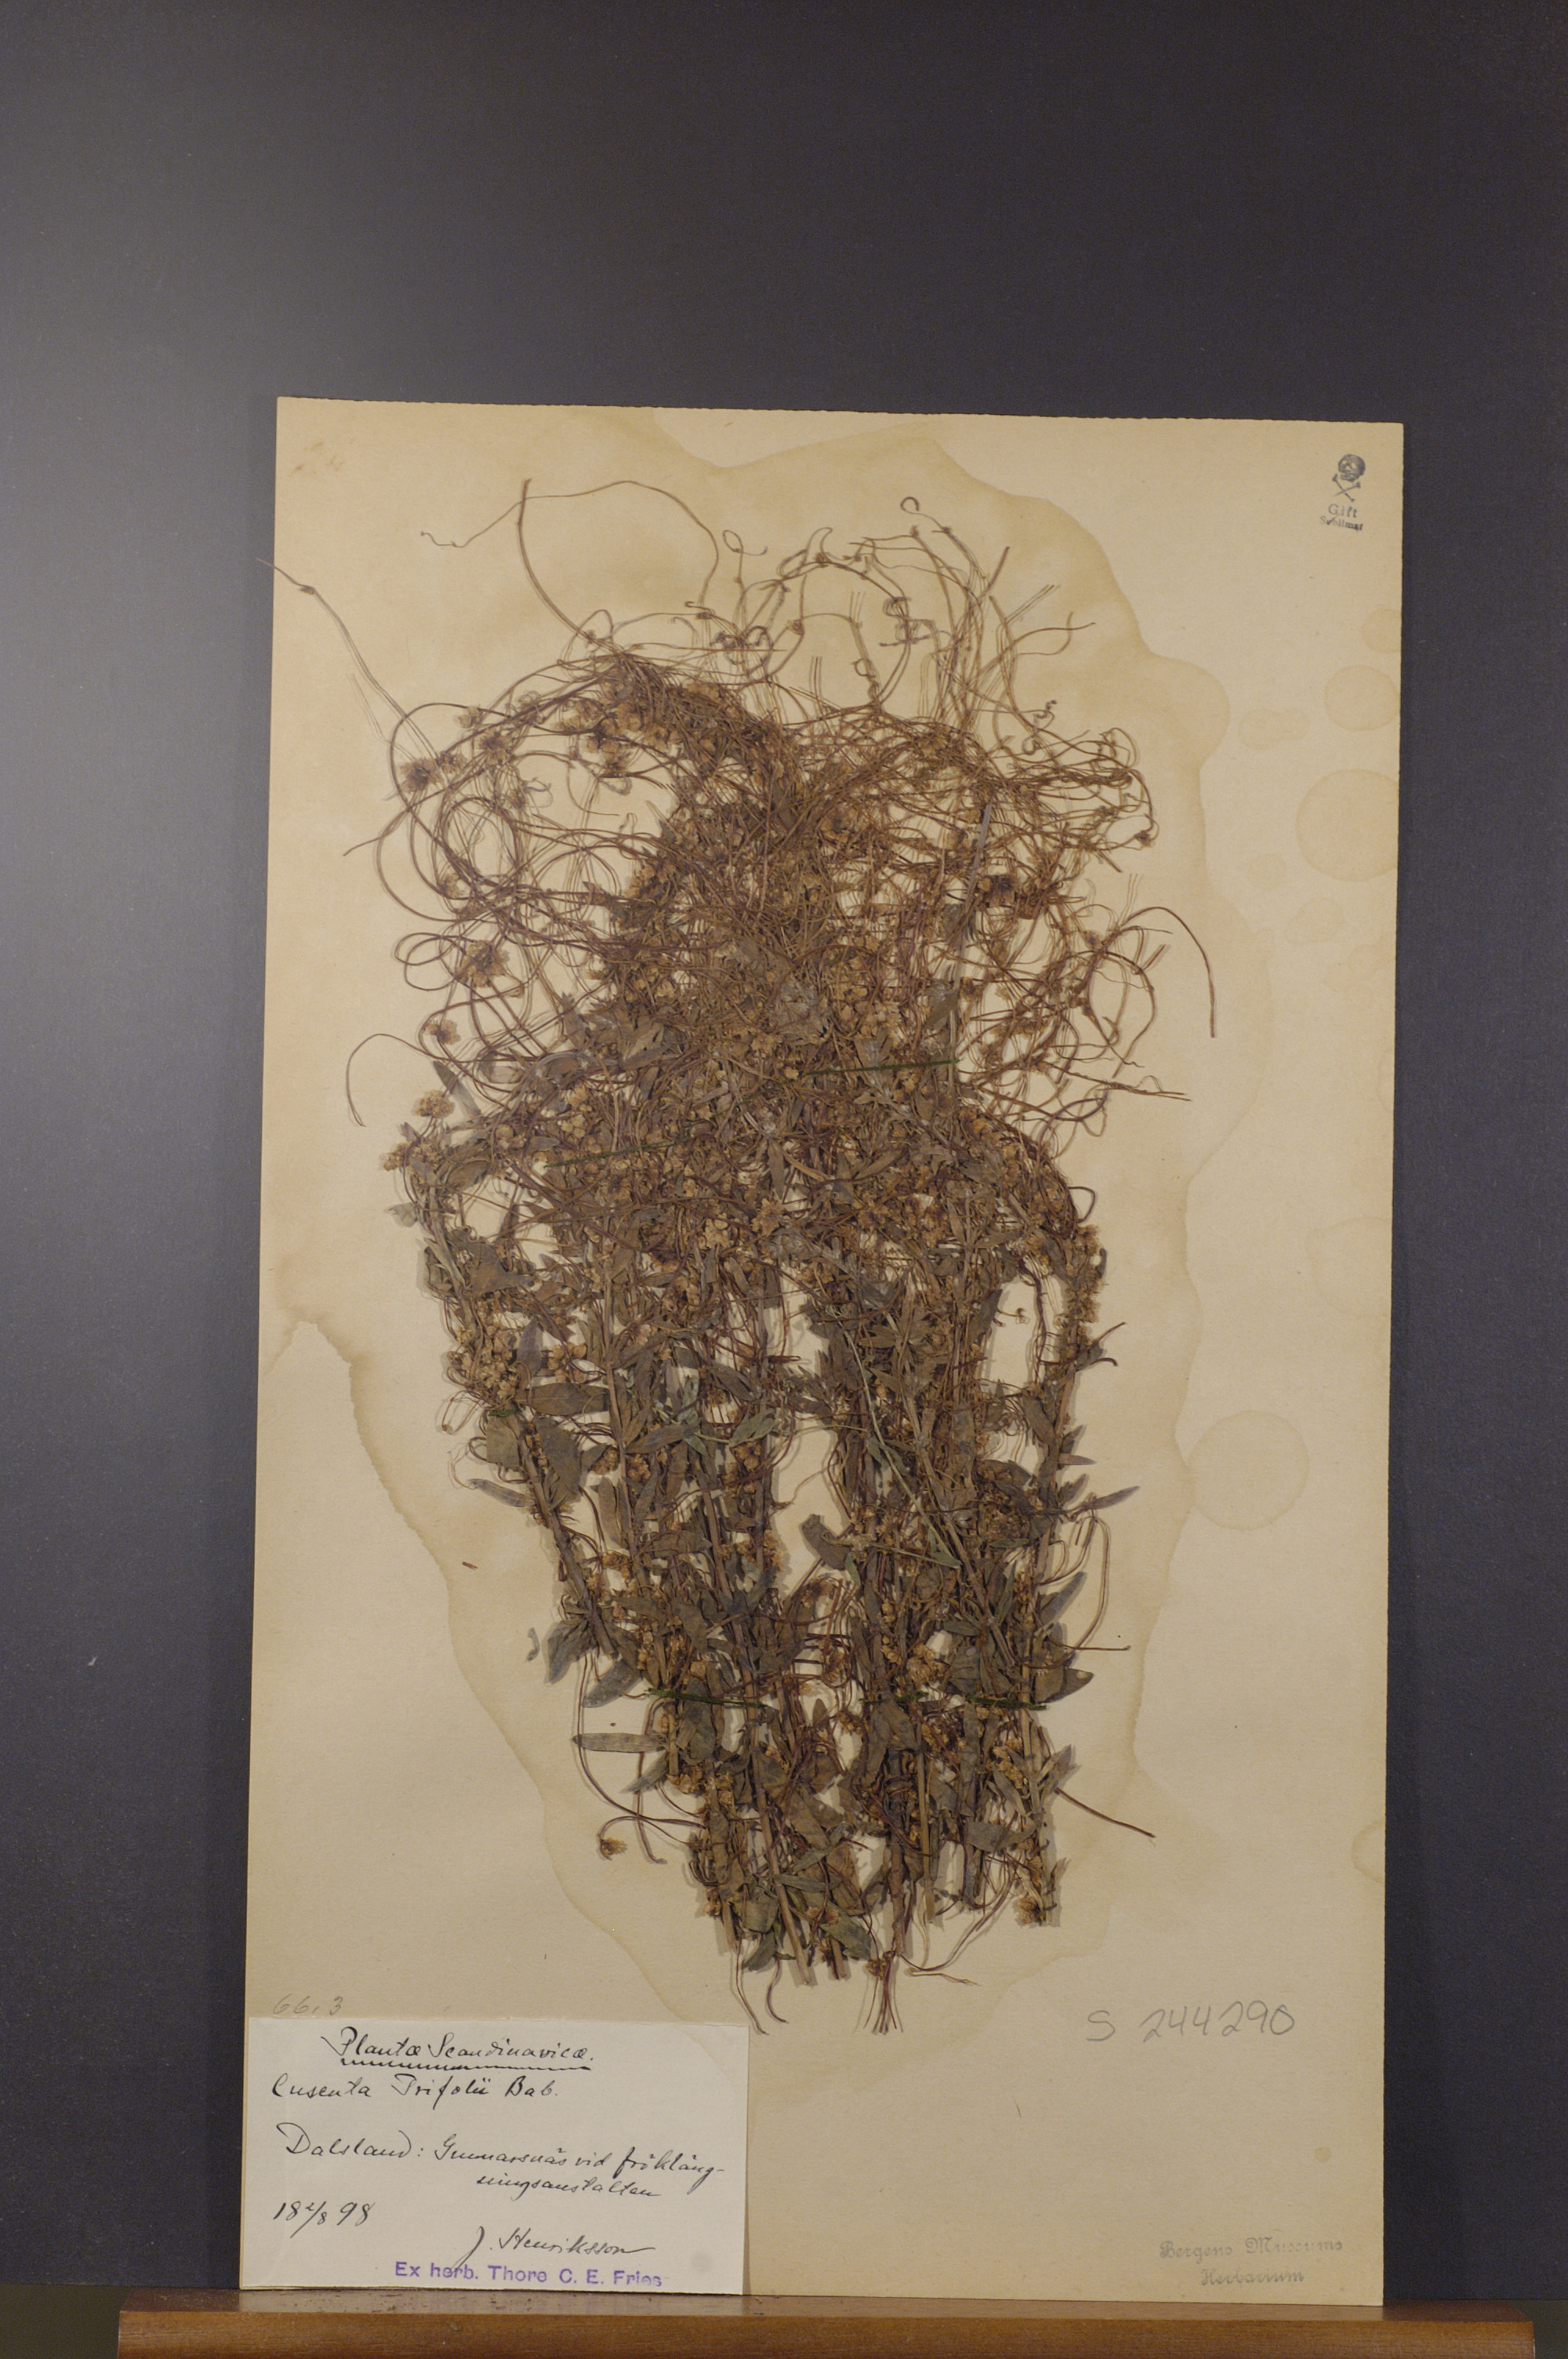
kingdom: Plantae
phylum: Tracheophyta
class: Magnoliopsida
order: Solanales
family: Convolvulaceae
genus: Cuscuta
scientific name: Cuscuta epithymum
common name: Clover dodder
